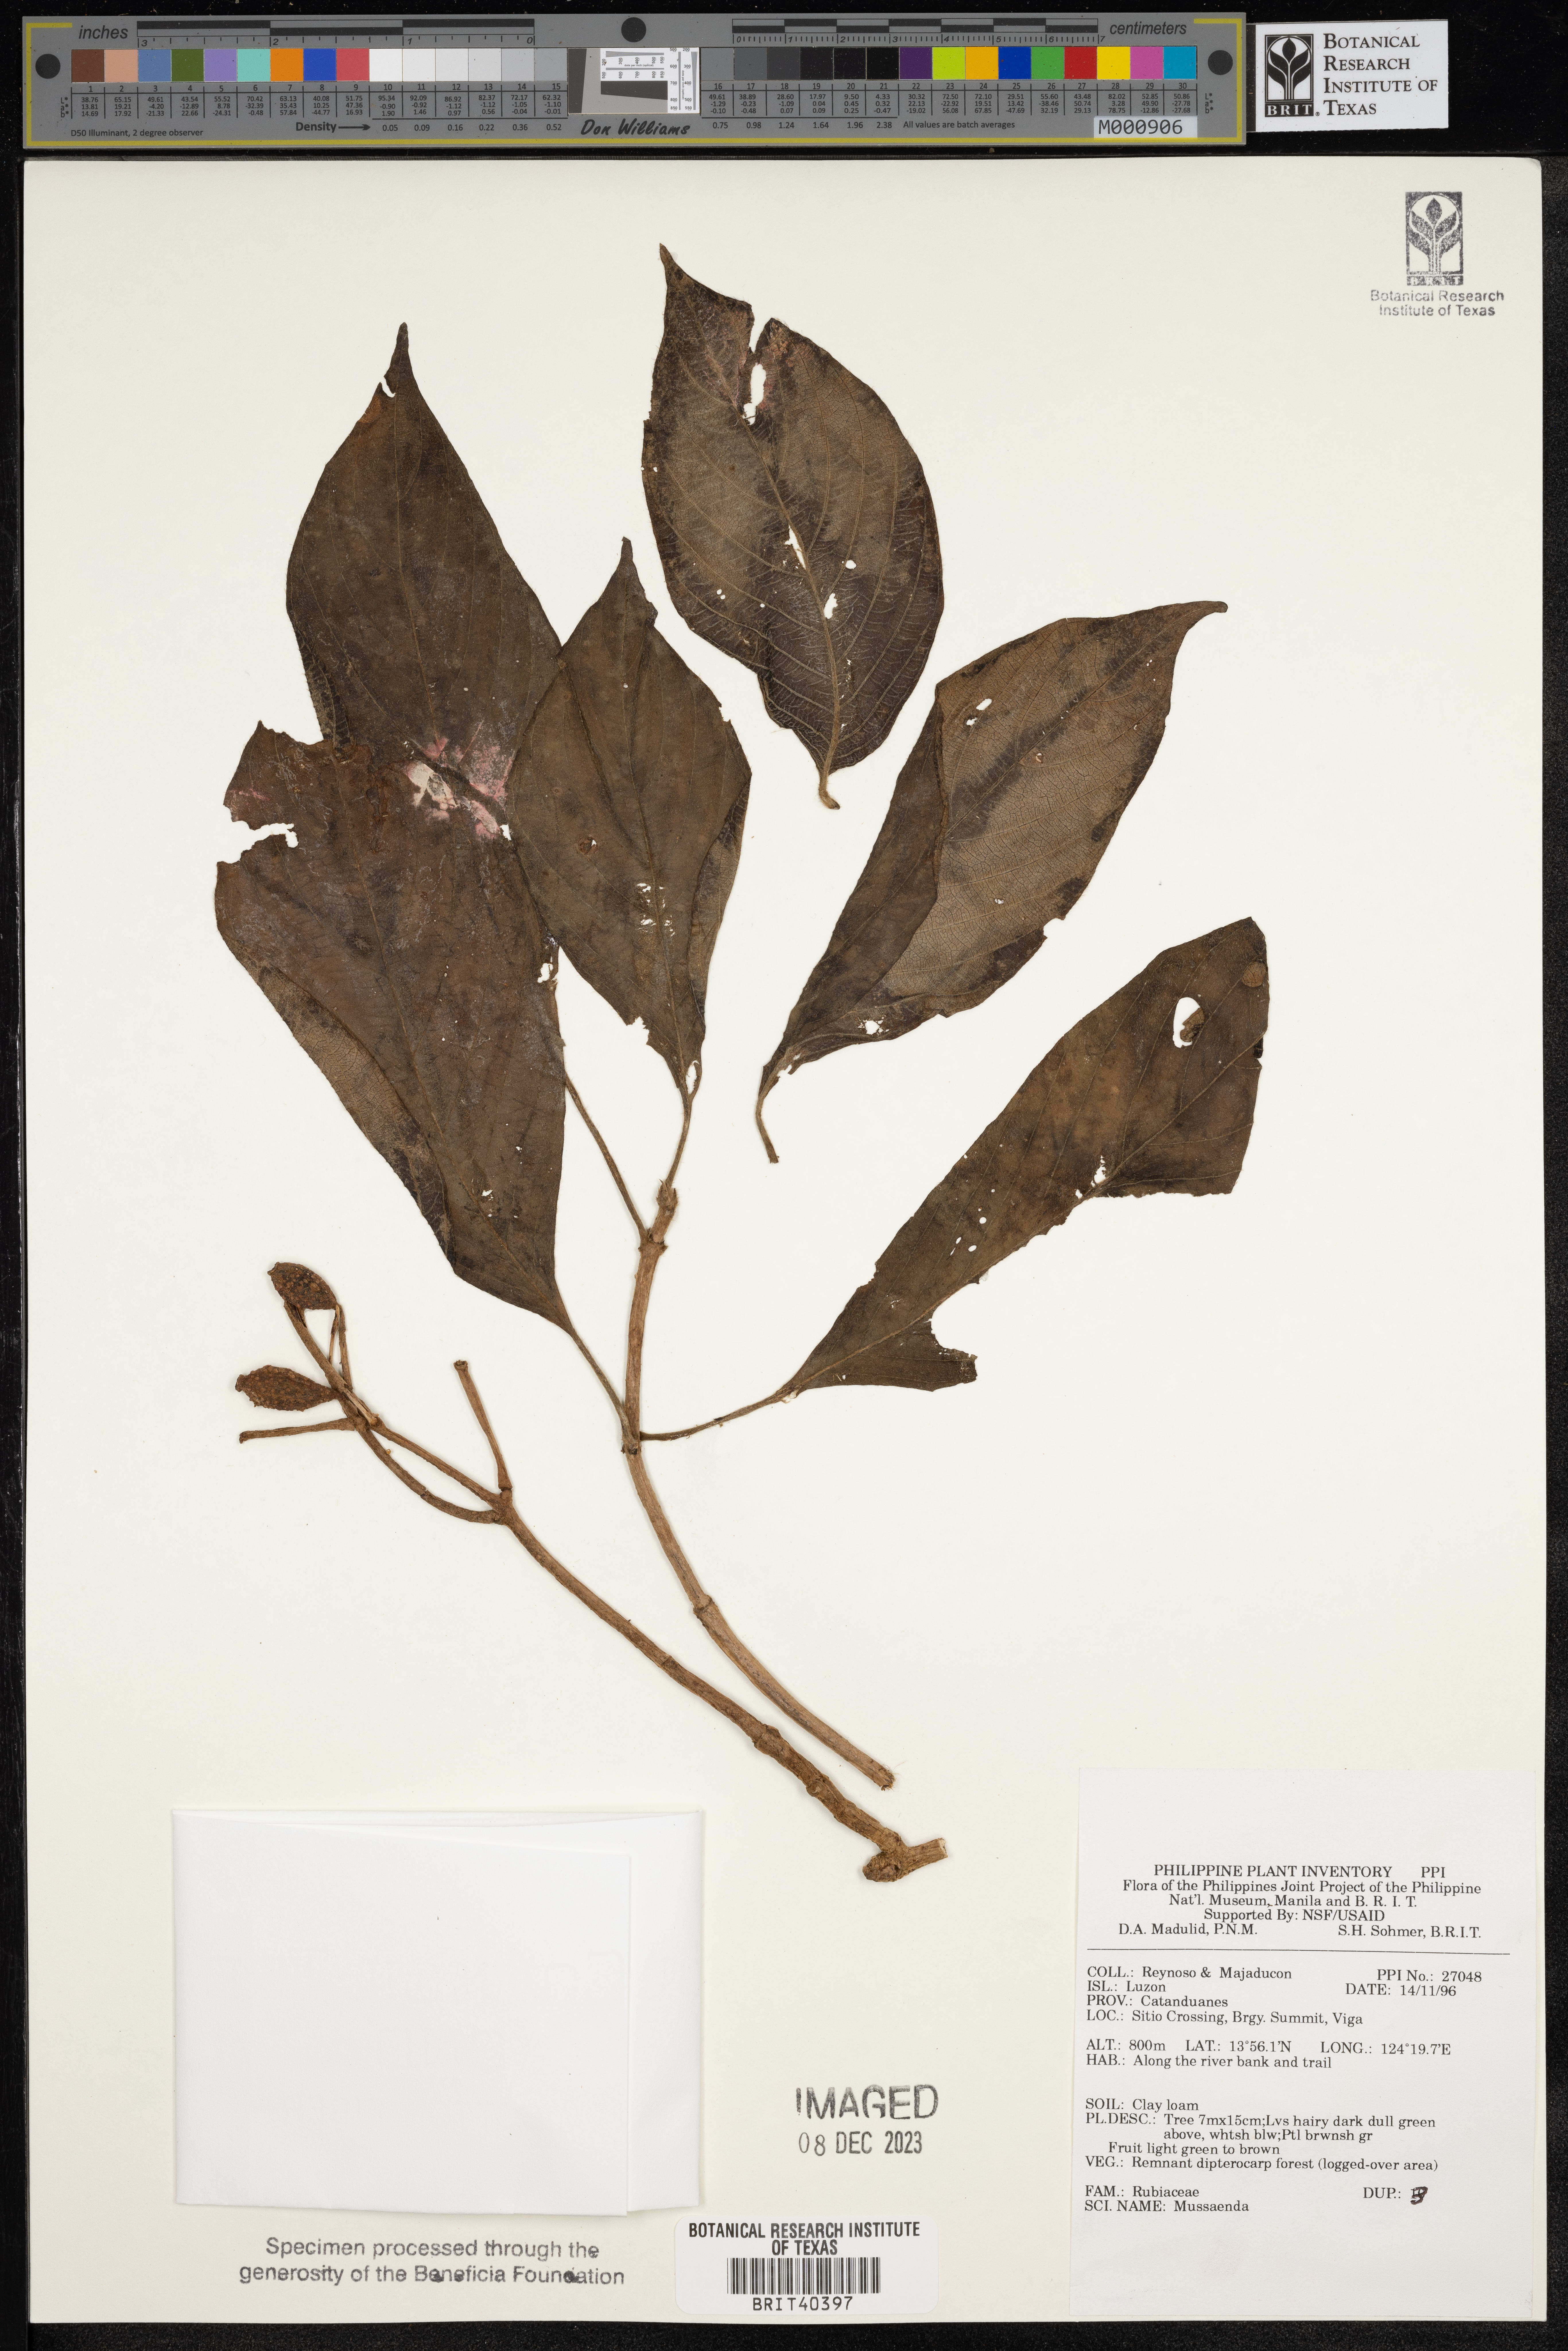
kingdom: Plantae
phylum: Tracheophyta
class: Magnoliopsida
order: Gentianales
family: Rubiaceae
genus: Mussaenda
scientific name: Mussaenda
